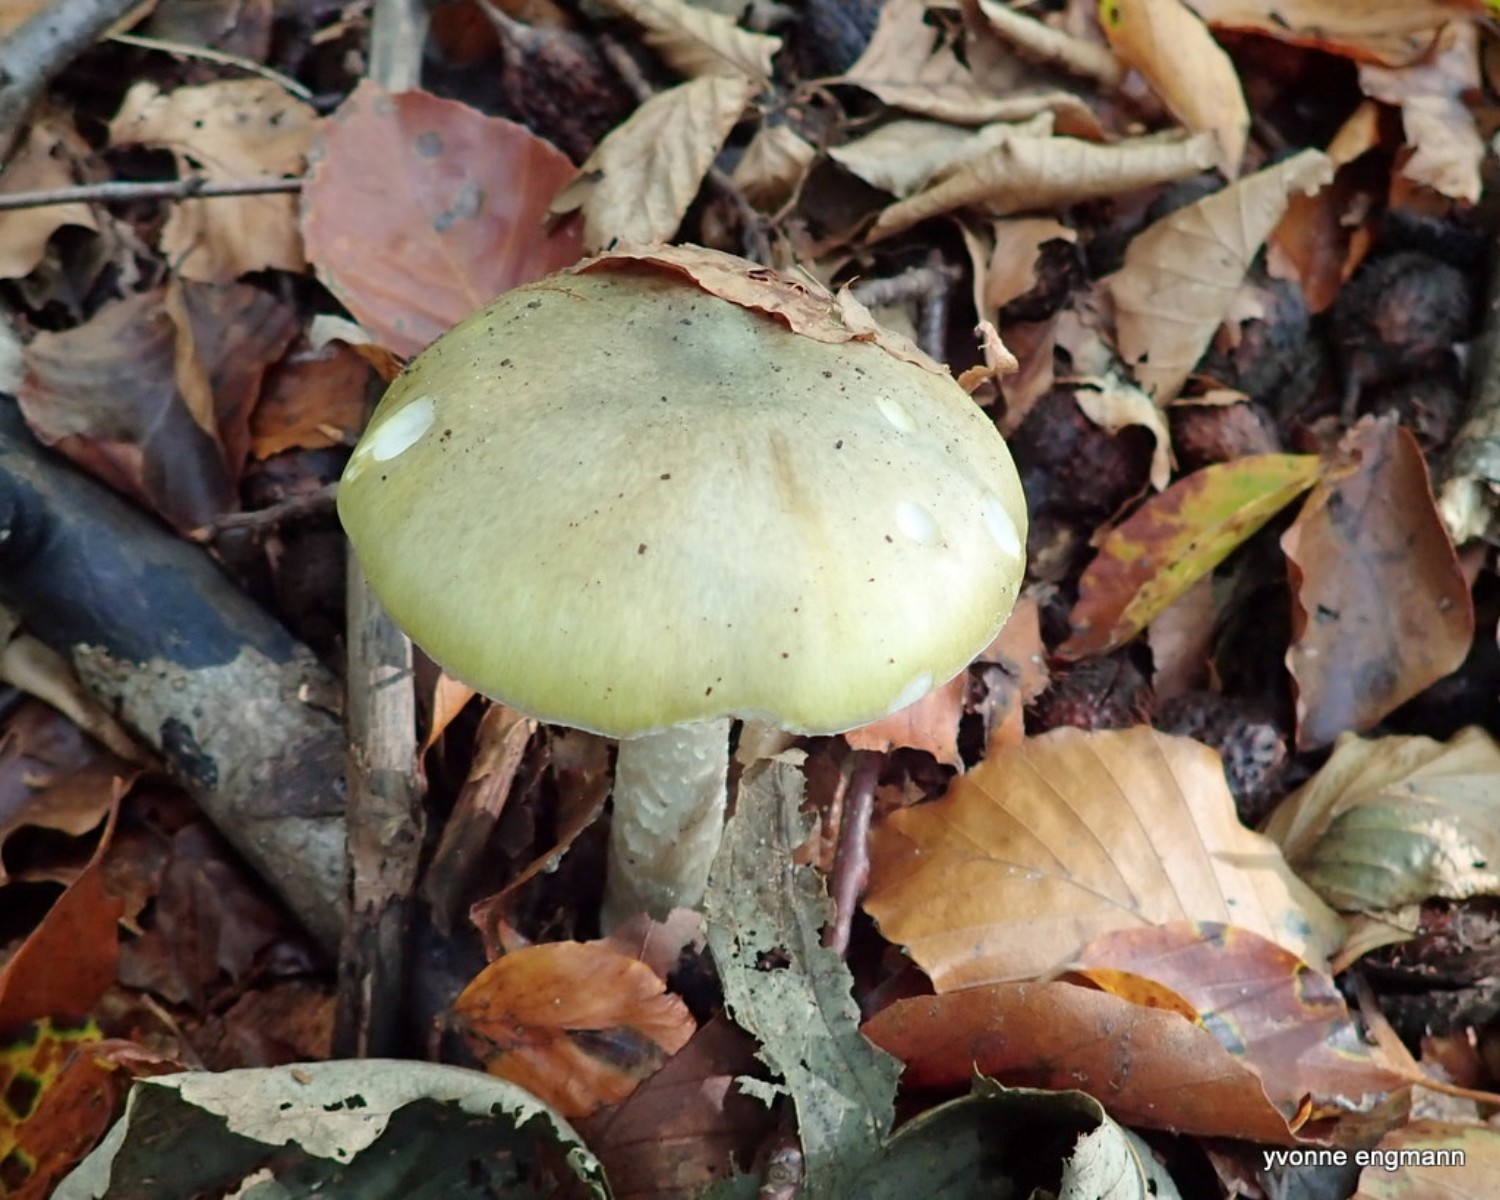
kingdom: Fungi
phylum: Basidiomycota
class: Agaricomycetes
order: Agaricales
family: Amanitaceae
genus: Amanita
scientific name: Amanita phalloides
